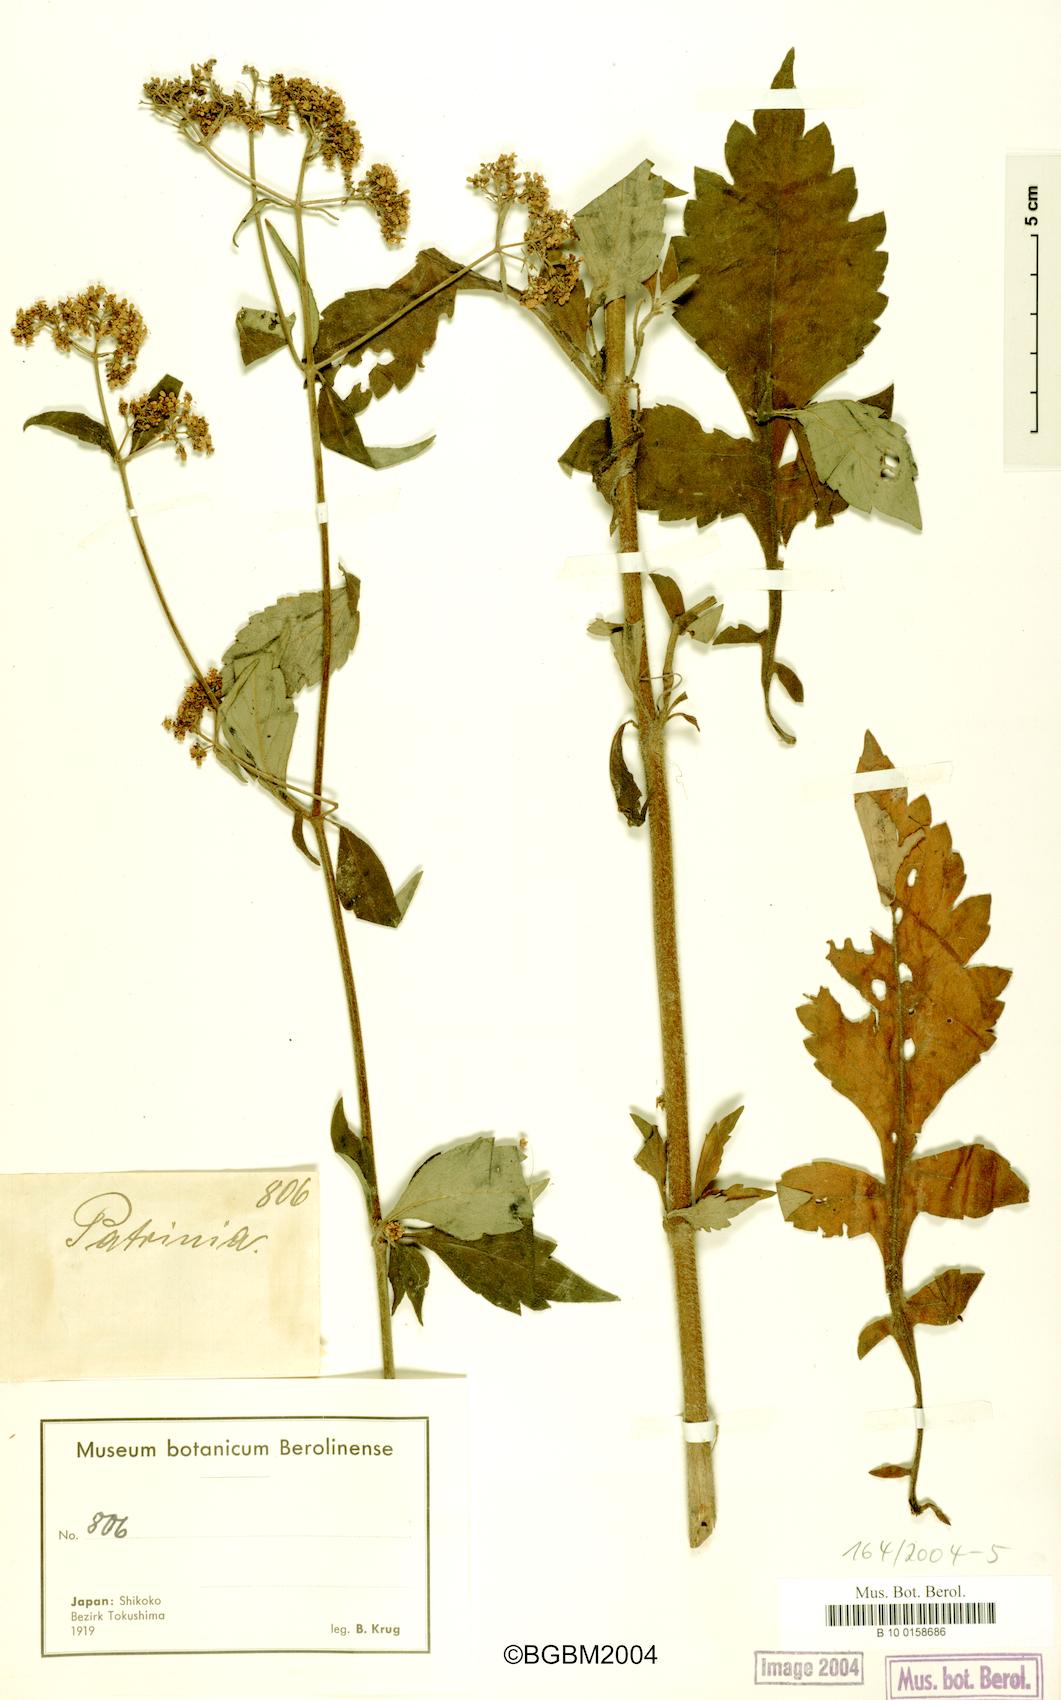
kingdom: Plantae
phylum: Tracheophyta
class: Magnoliopsida
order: Dipsacales
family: Caprifoliaceae
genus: Patrinia
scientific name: Patrinia
